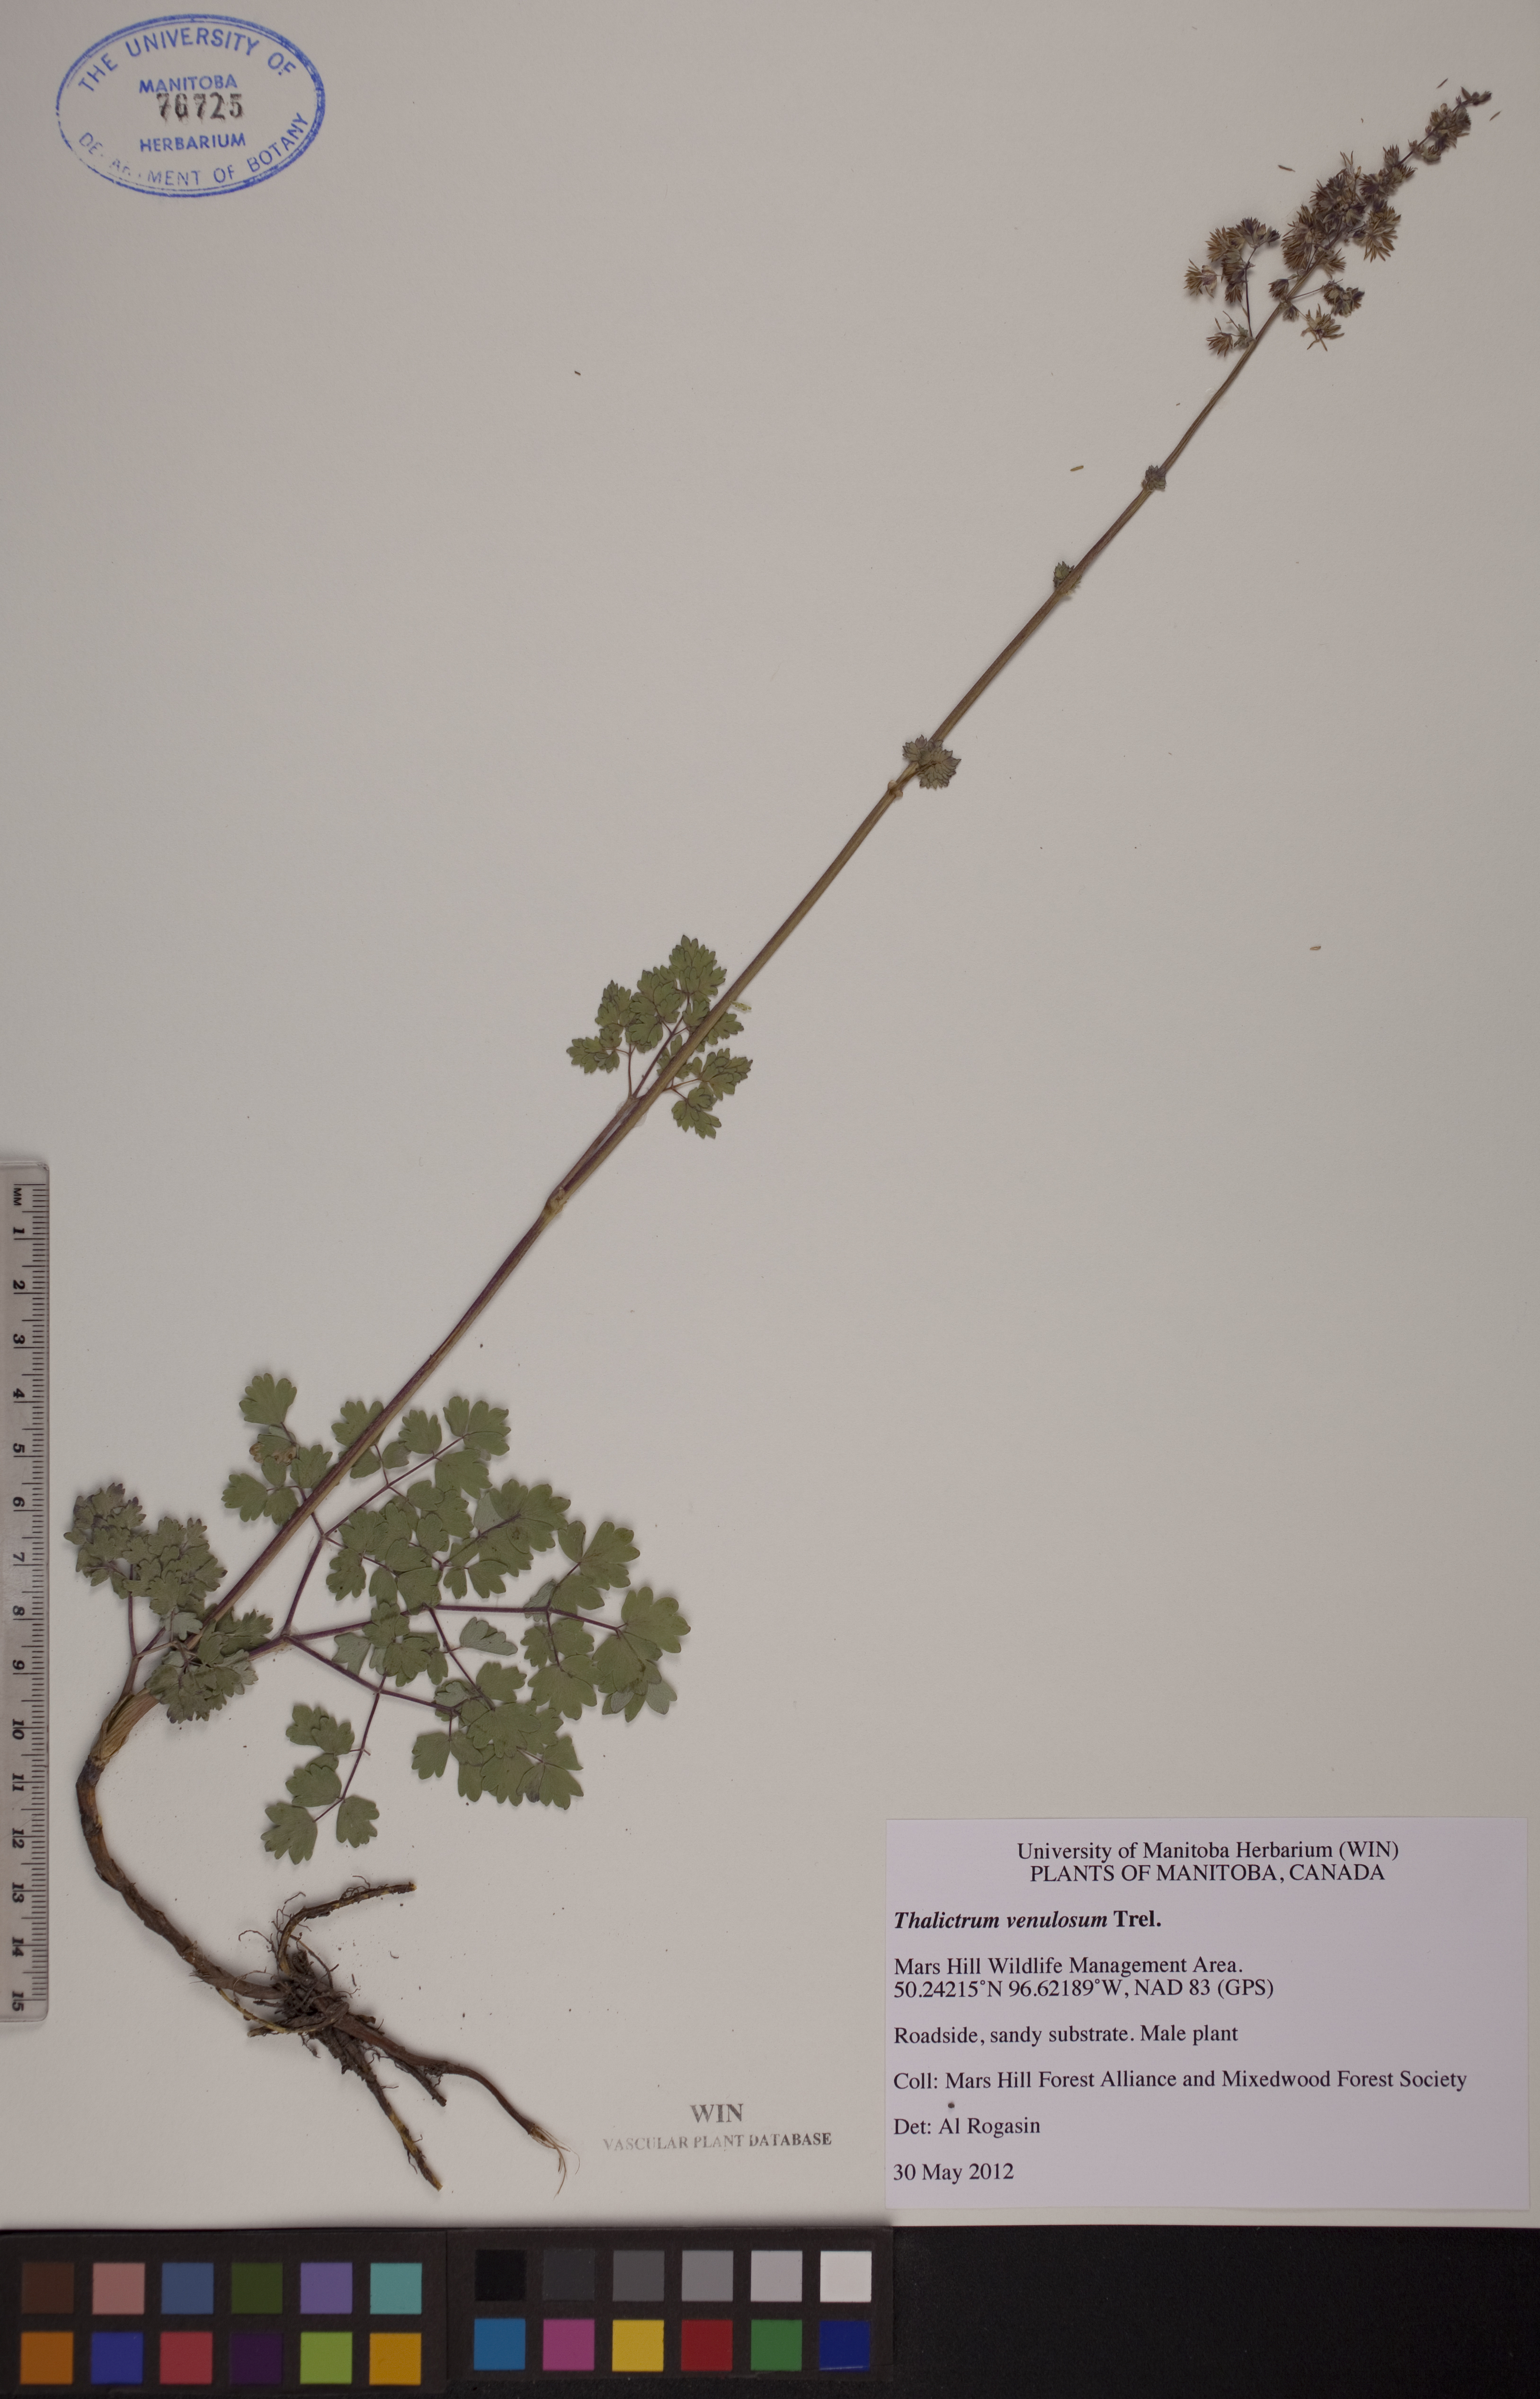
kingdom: Plantae
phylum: Tracheophyta
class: Magnoliopsida
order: Ranunculales
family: Ranunculaceae
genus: Thalictrum
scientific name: Thalictrum venulosum
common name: Early meadow-rue
